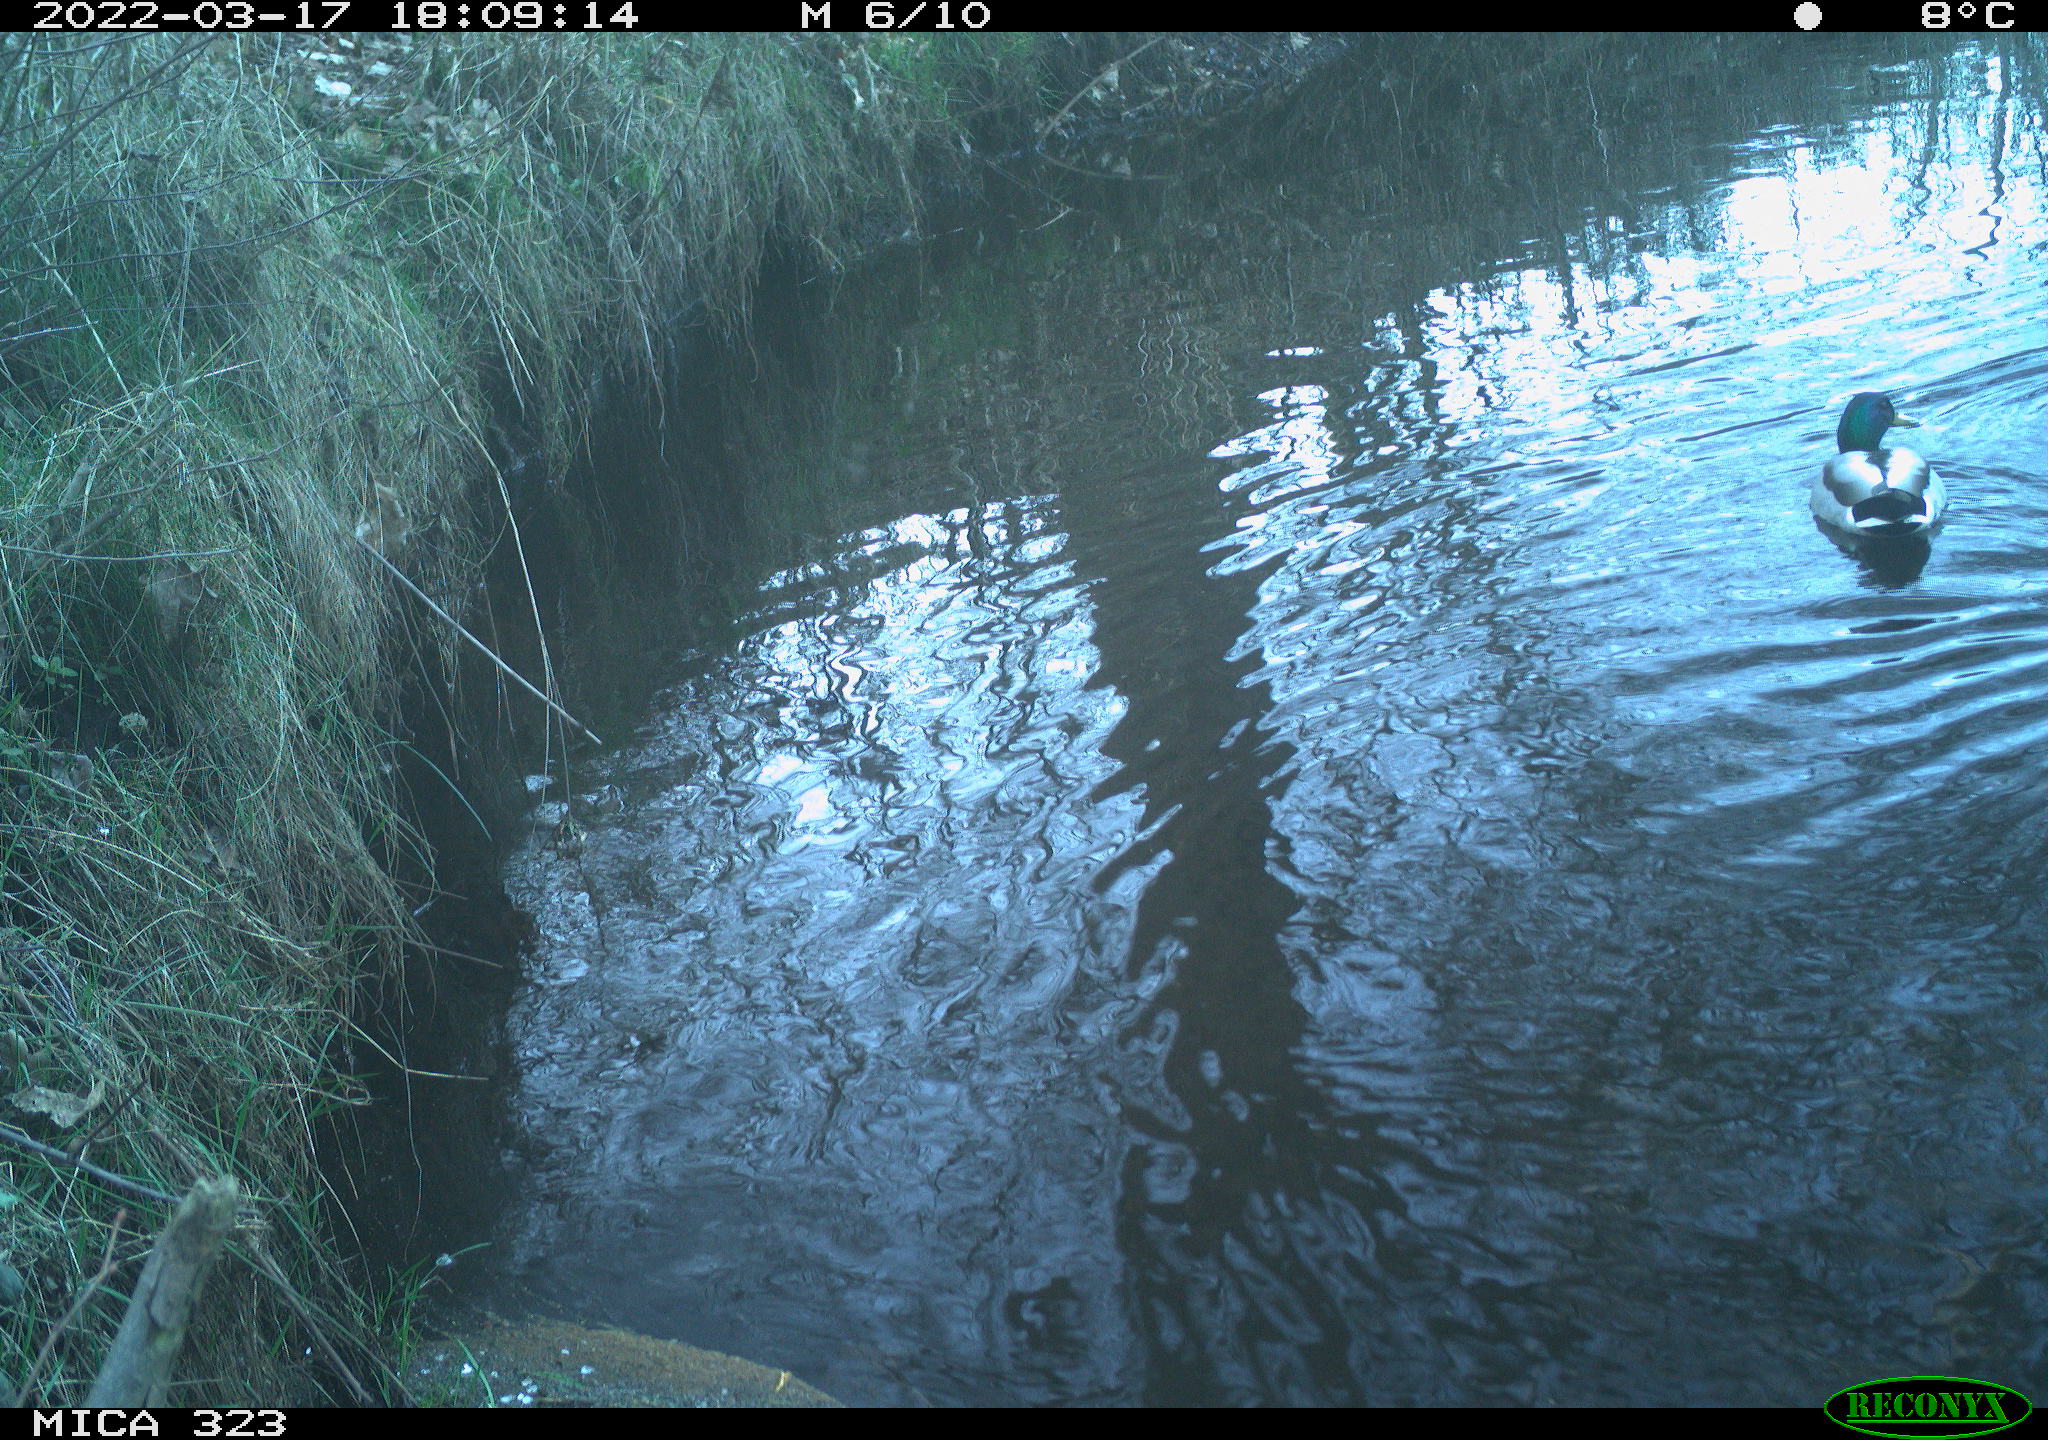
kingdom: Animalia
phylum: Chordata
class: Aves
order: Anseriformes
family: Anatidae
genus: Anas
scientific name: Anas platyrhynchos
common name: Mallard
